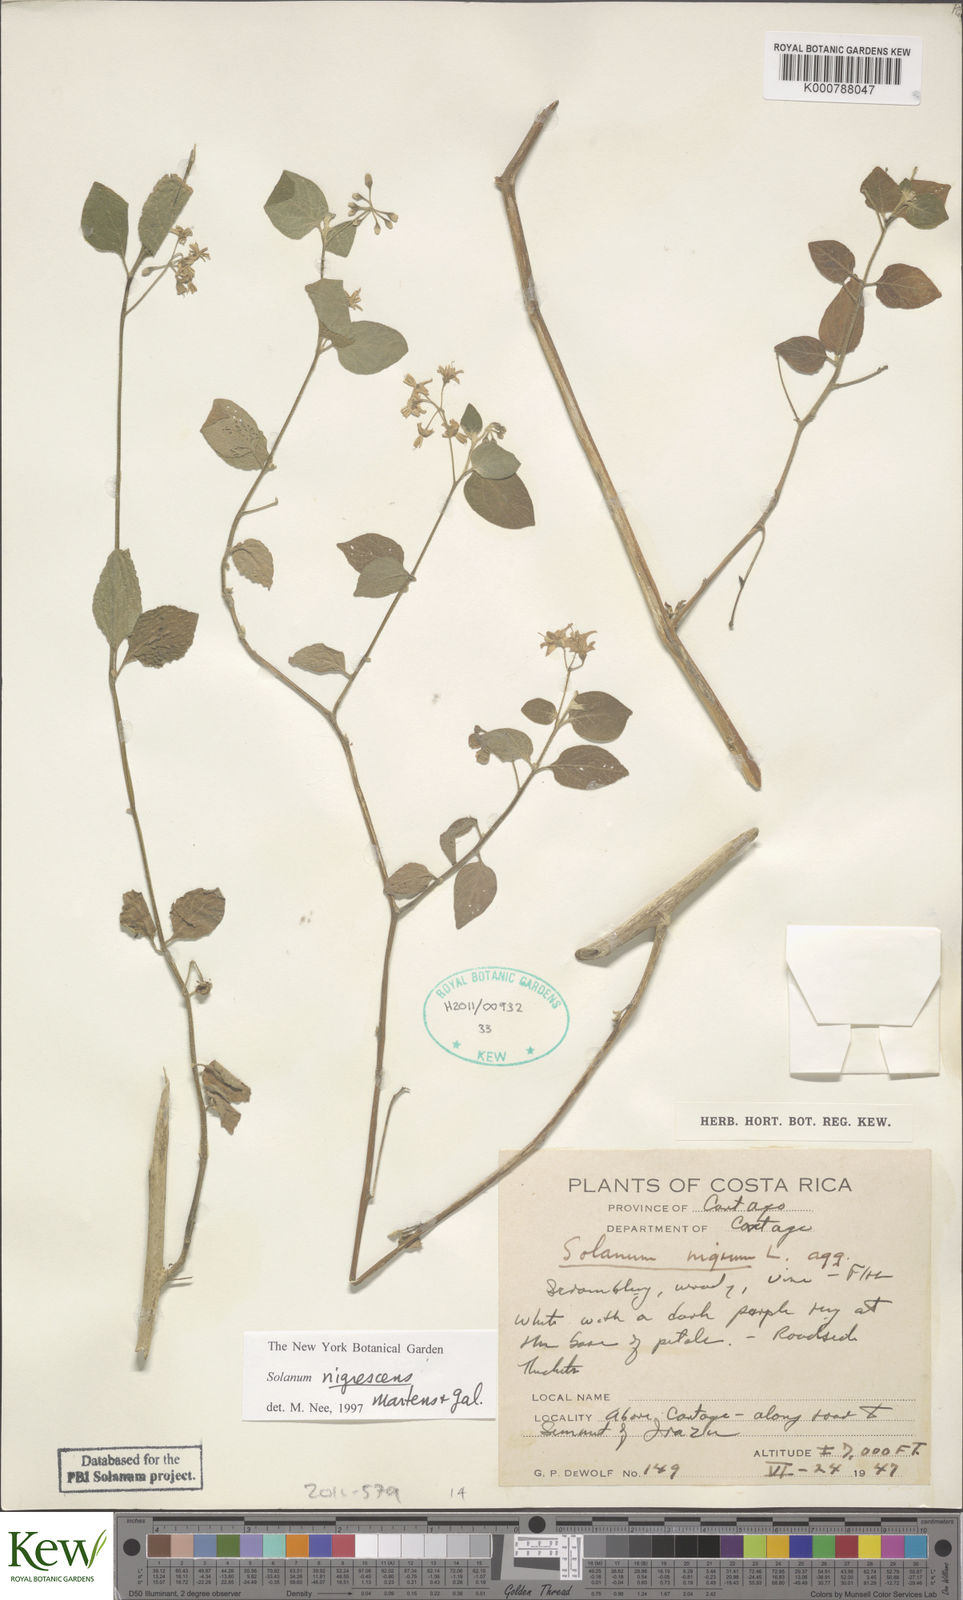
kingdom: Plantae
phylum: Tracheophyta
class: Magnoliopsida
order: Solanales
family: Solanaceae
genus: Solanum
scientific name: Solanum nigrescens
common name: Divine nightshade
